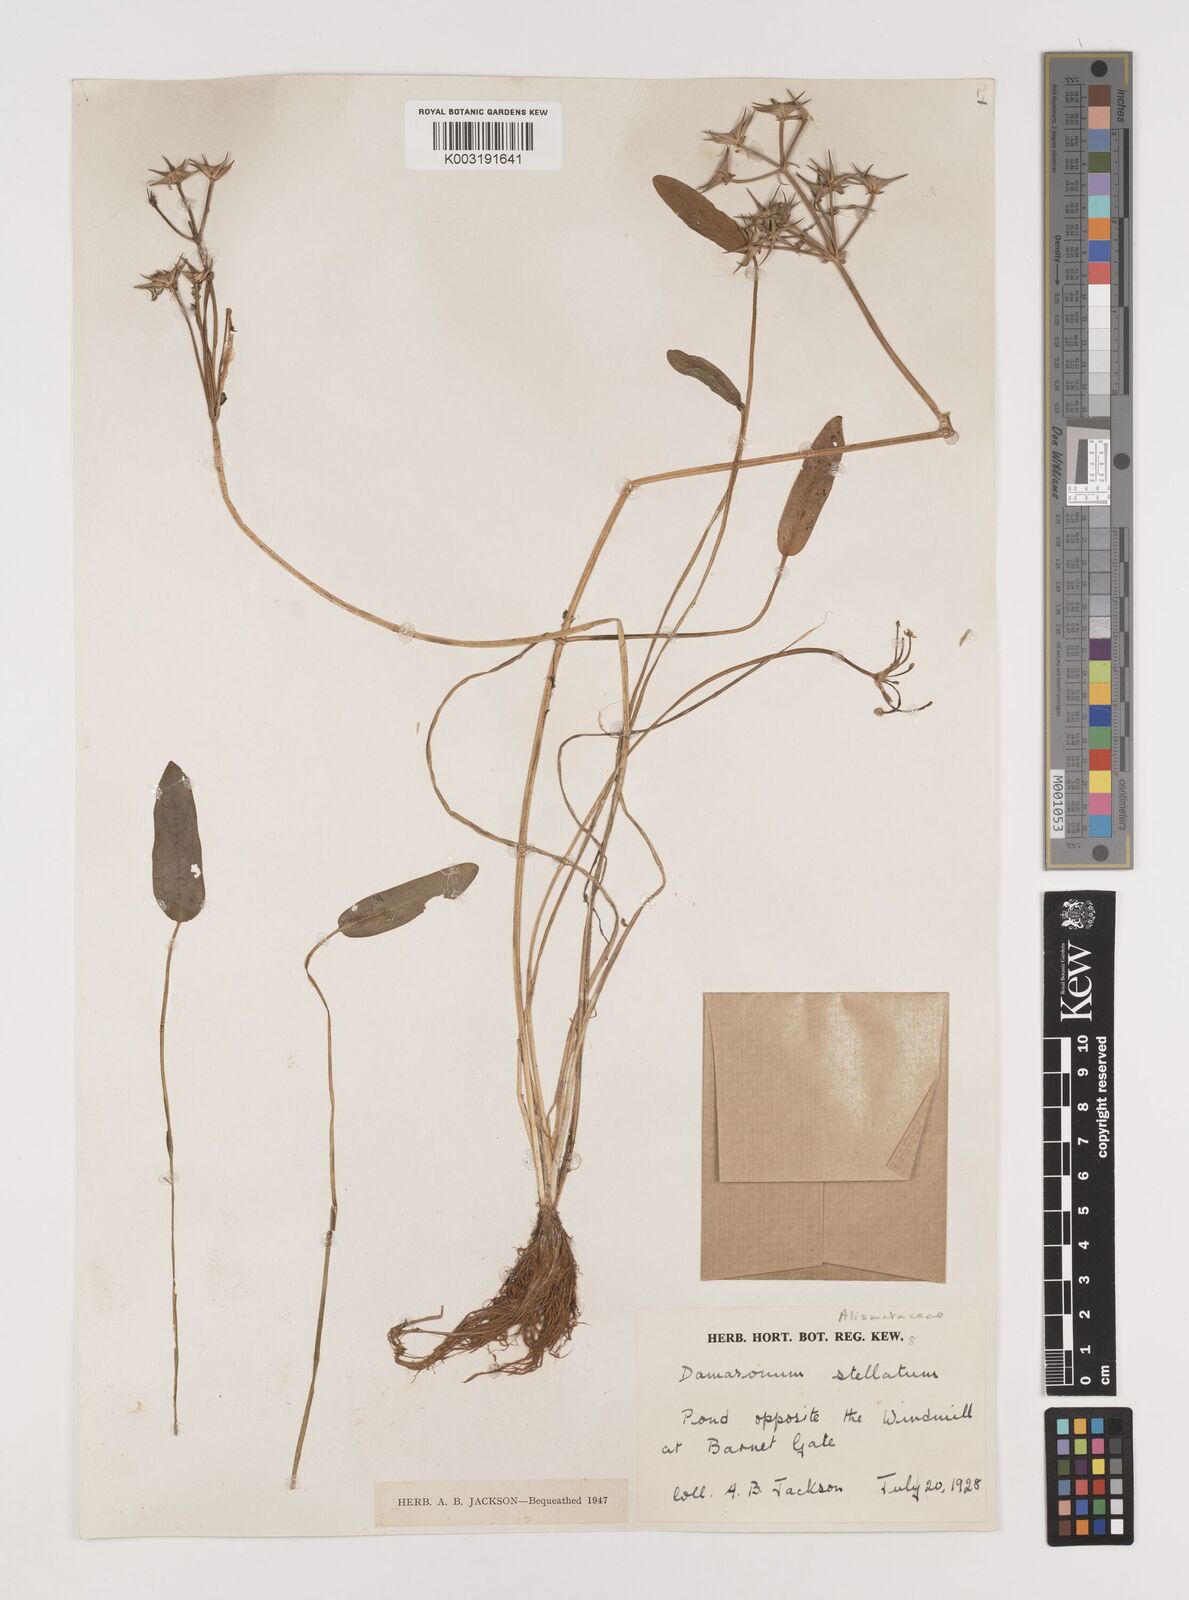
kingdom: Plantae
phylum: Tracheophyta
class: Liliopsida
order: Alismatales
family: Alismataceae
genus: Damasonium
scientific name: Damasonium alisma
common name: Starfruit
